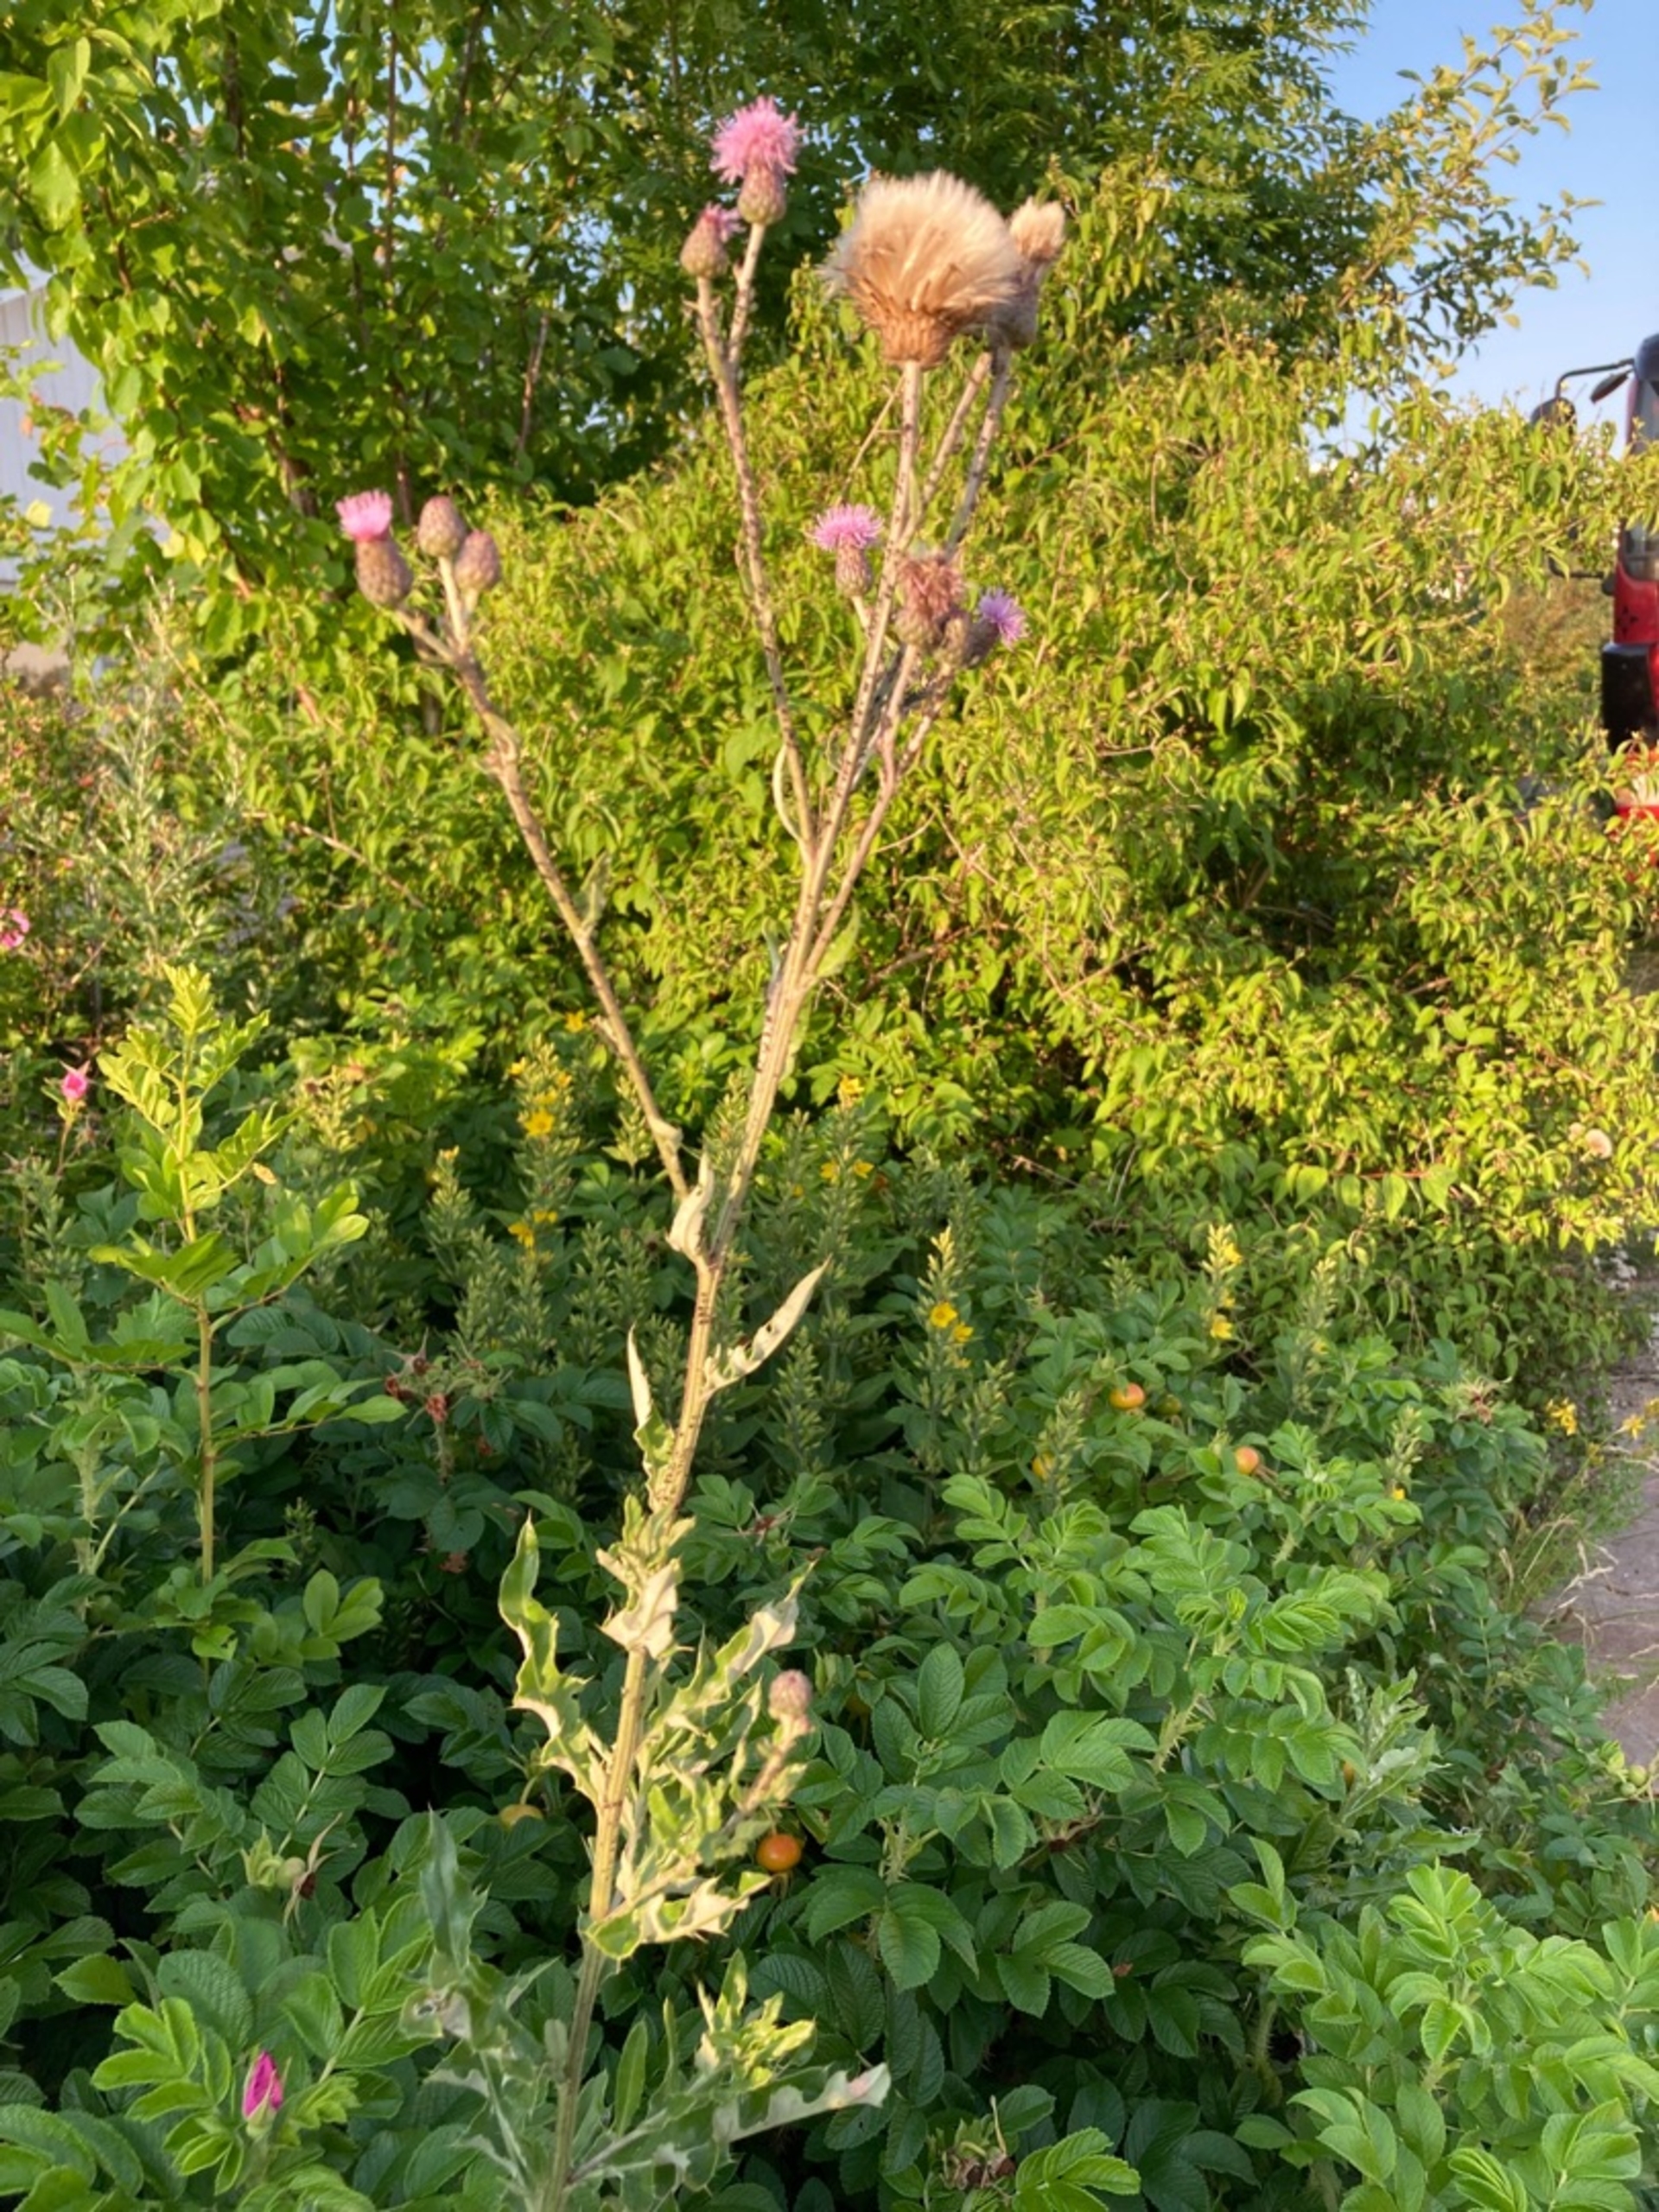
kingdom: Plantae
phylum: Tracheophyta
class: Magnoliopsida
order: Asterales
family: Asteraceae
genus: Cirsium
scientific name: Cirsium arvense
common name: Ager-tidsel
